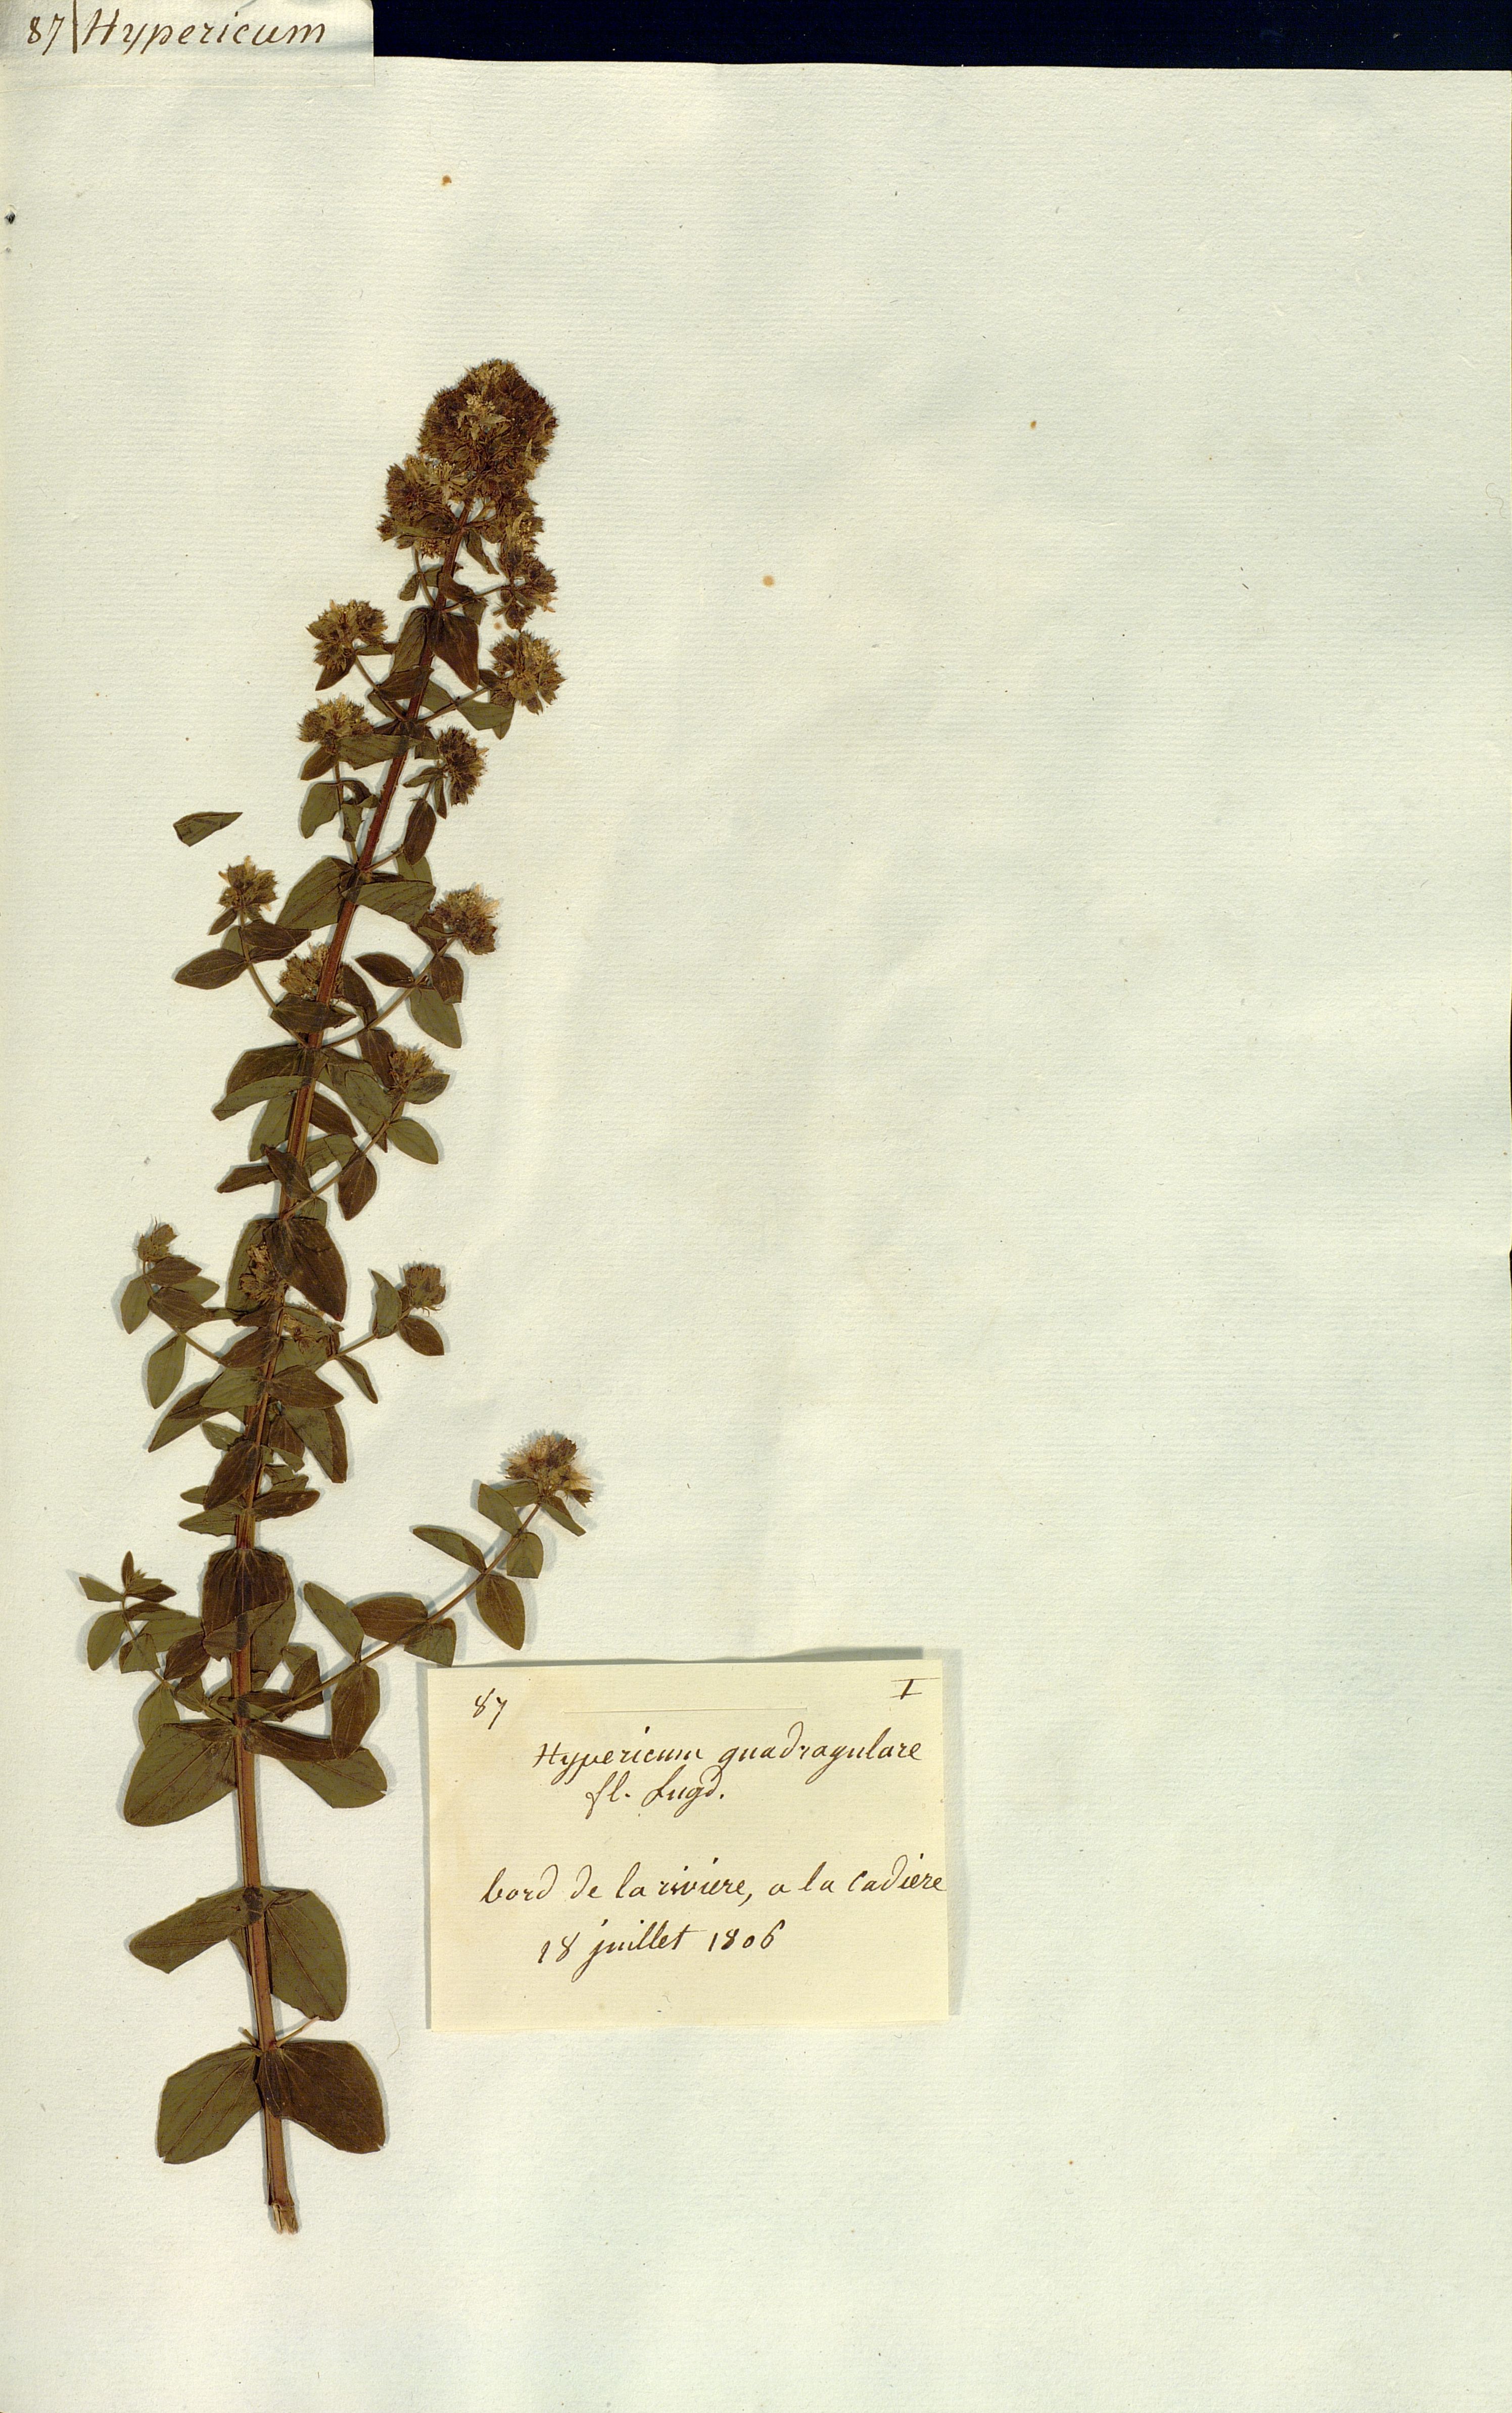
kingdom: Plantae
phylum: Tracheophyta
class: Magnoliopsida
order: Malpighiales
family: Hypericaceae
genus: Hypericum
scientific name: Hypericum quadrangulare
